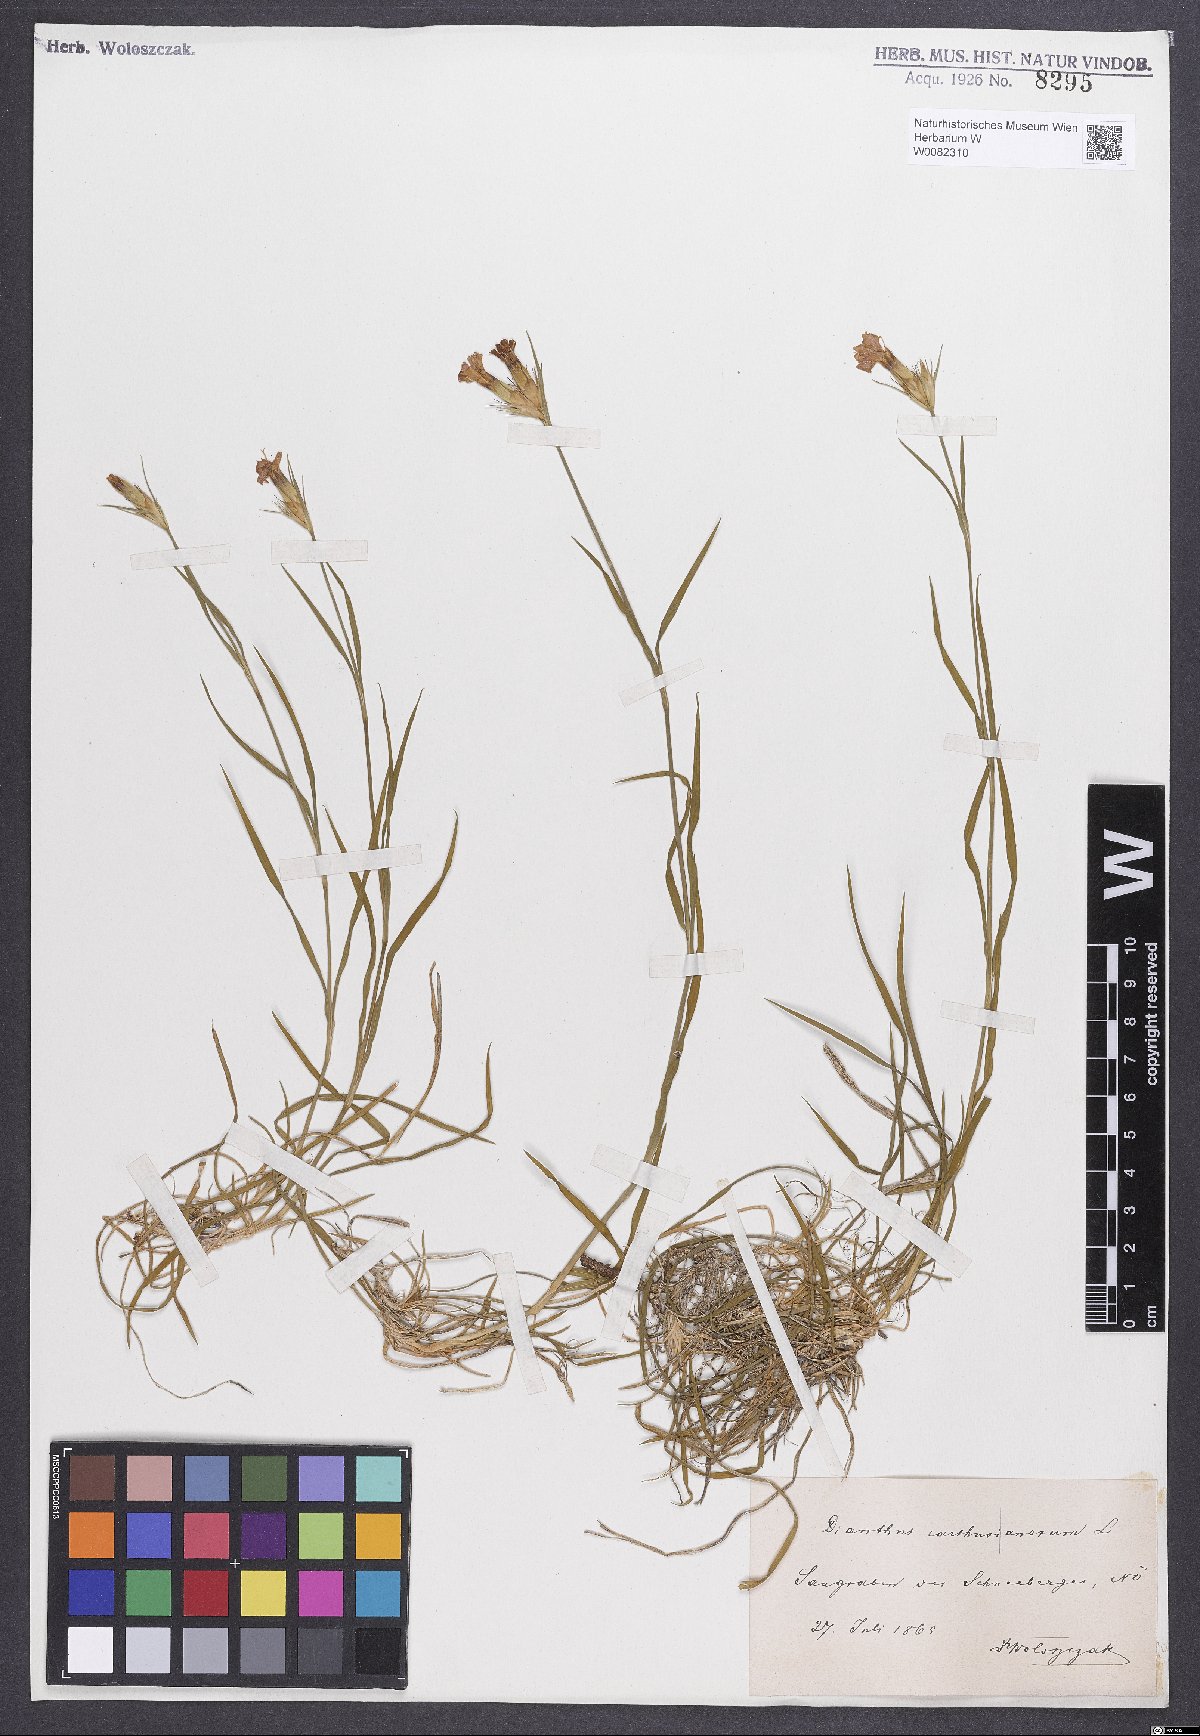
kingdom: Plantae
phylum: Tracheophyta
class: Magnoliopsida
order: Caryophyllales
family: Caryophyllaceae
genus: Dianthus
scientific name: Dianthus carthusianorum
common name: Carthusian pink
